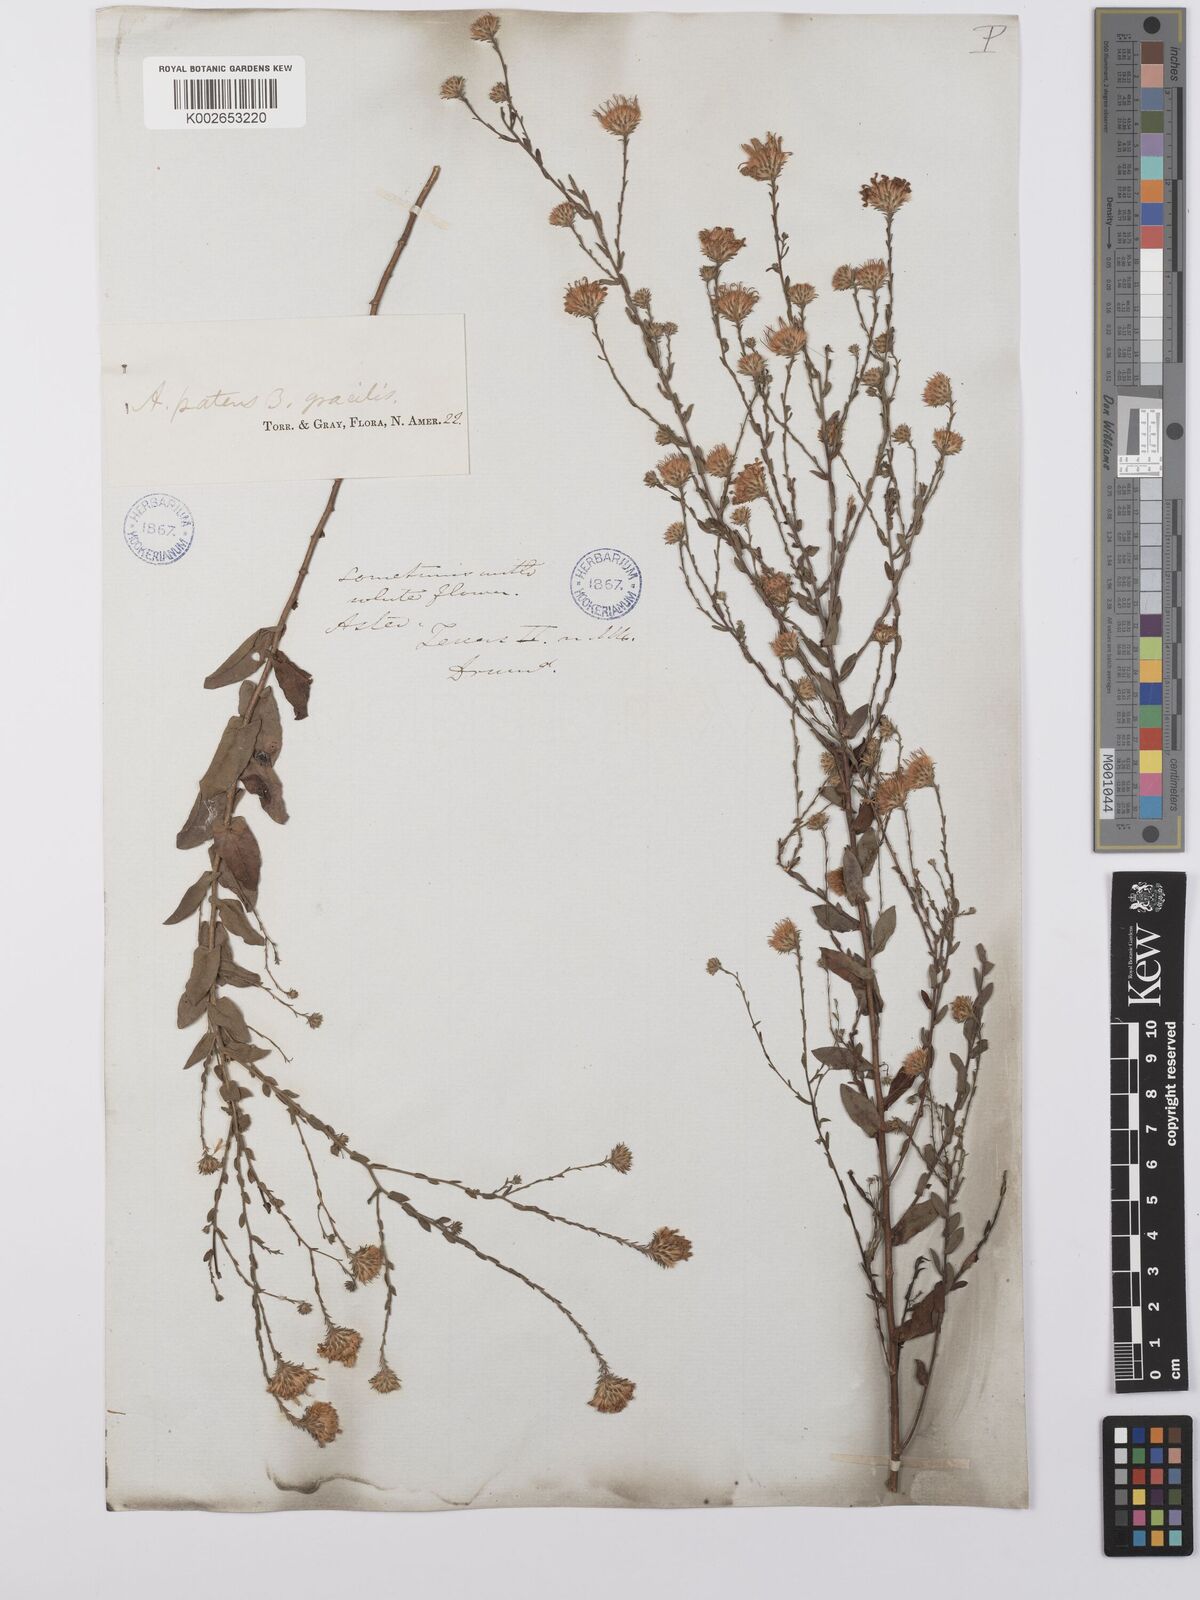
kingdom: Plantae
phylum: Tracheophyta
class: Magnoliopsida
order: Asterales
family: Asteraceae
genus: Symphyotrichum
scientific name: Symphyotrichum patens
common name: Late purple aster
